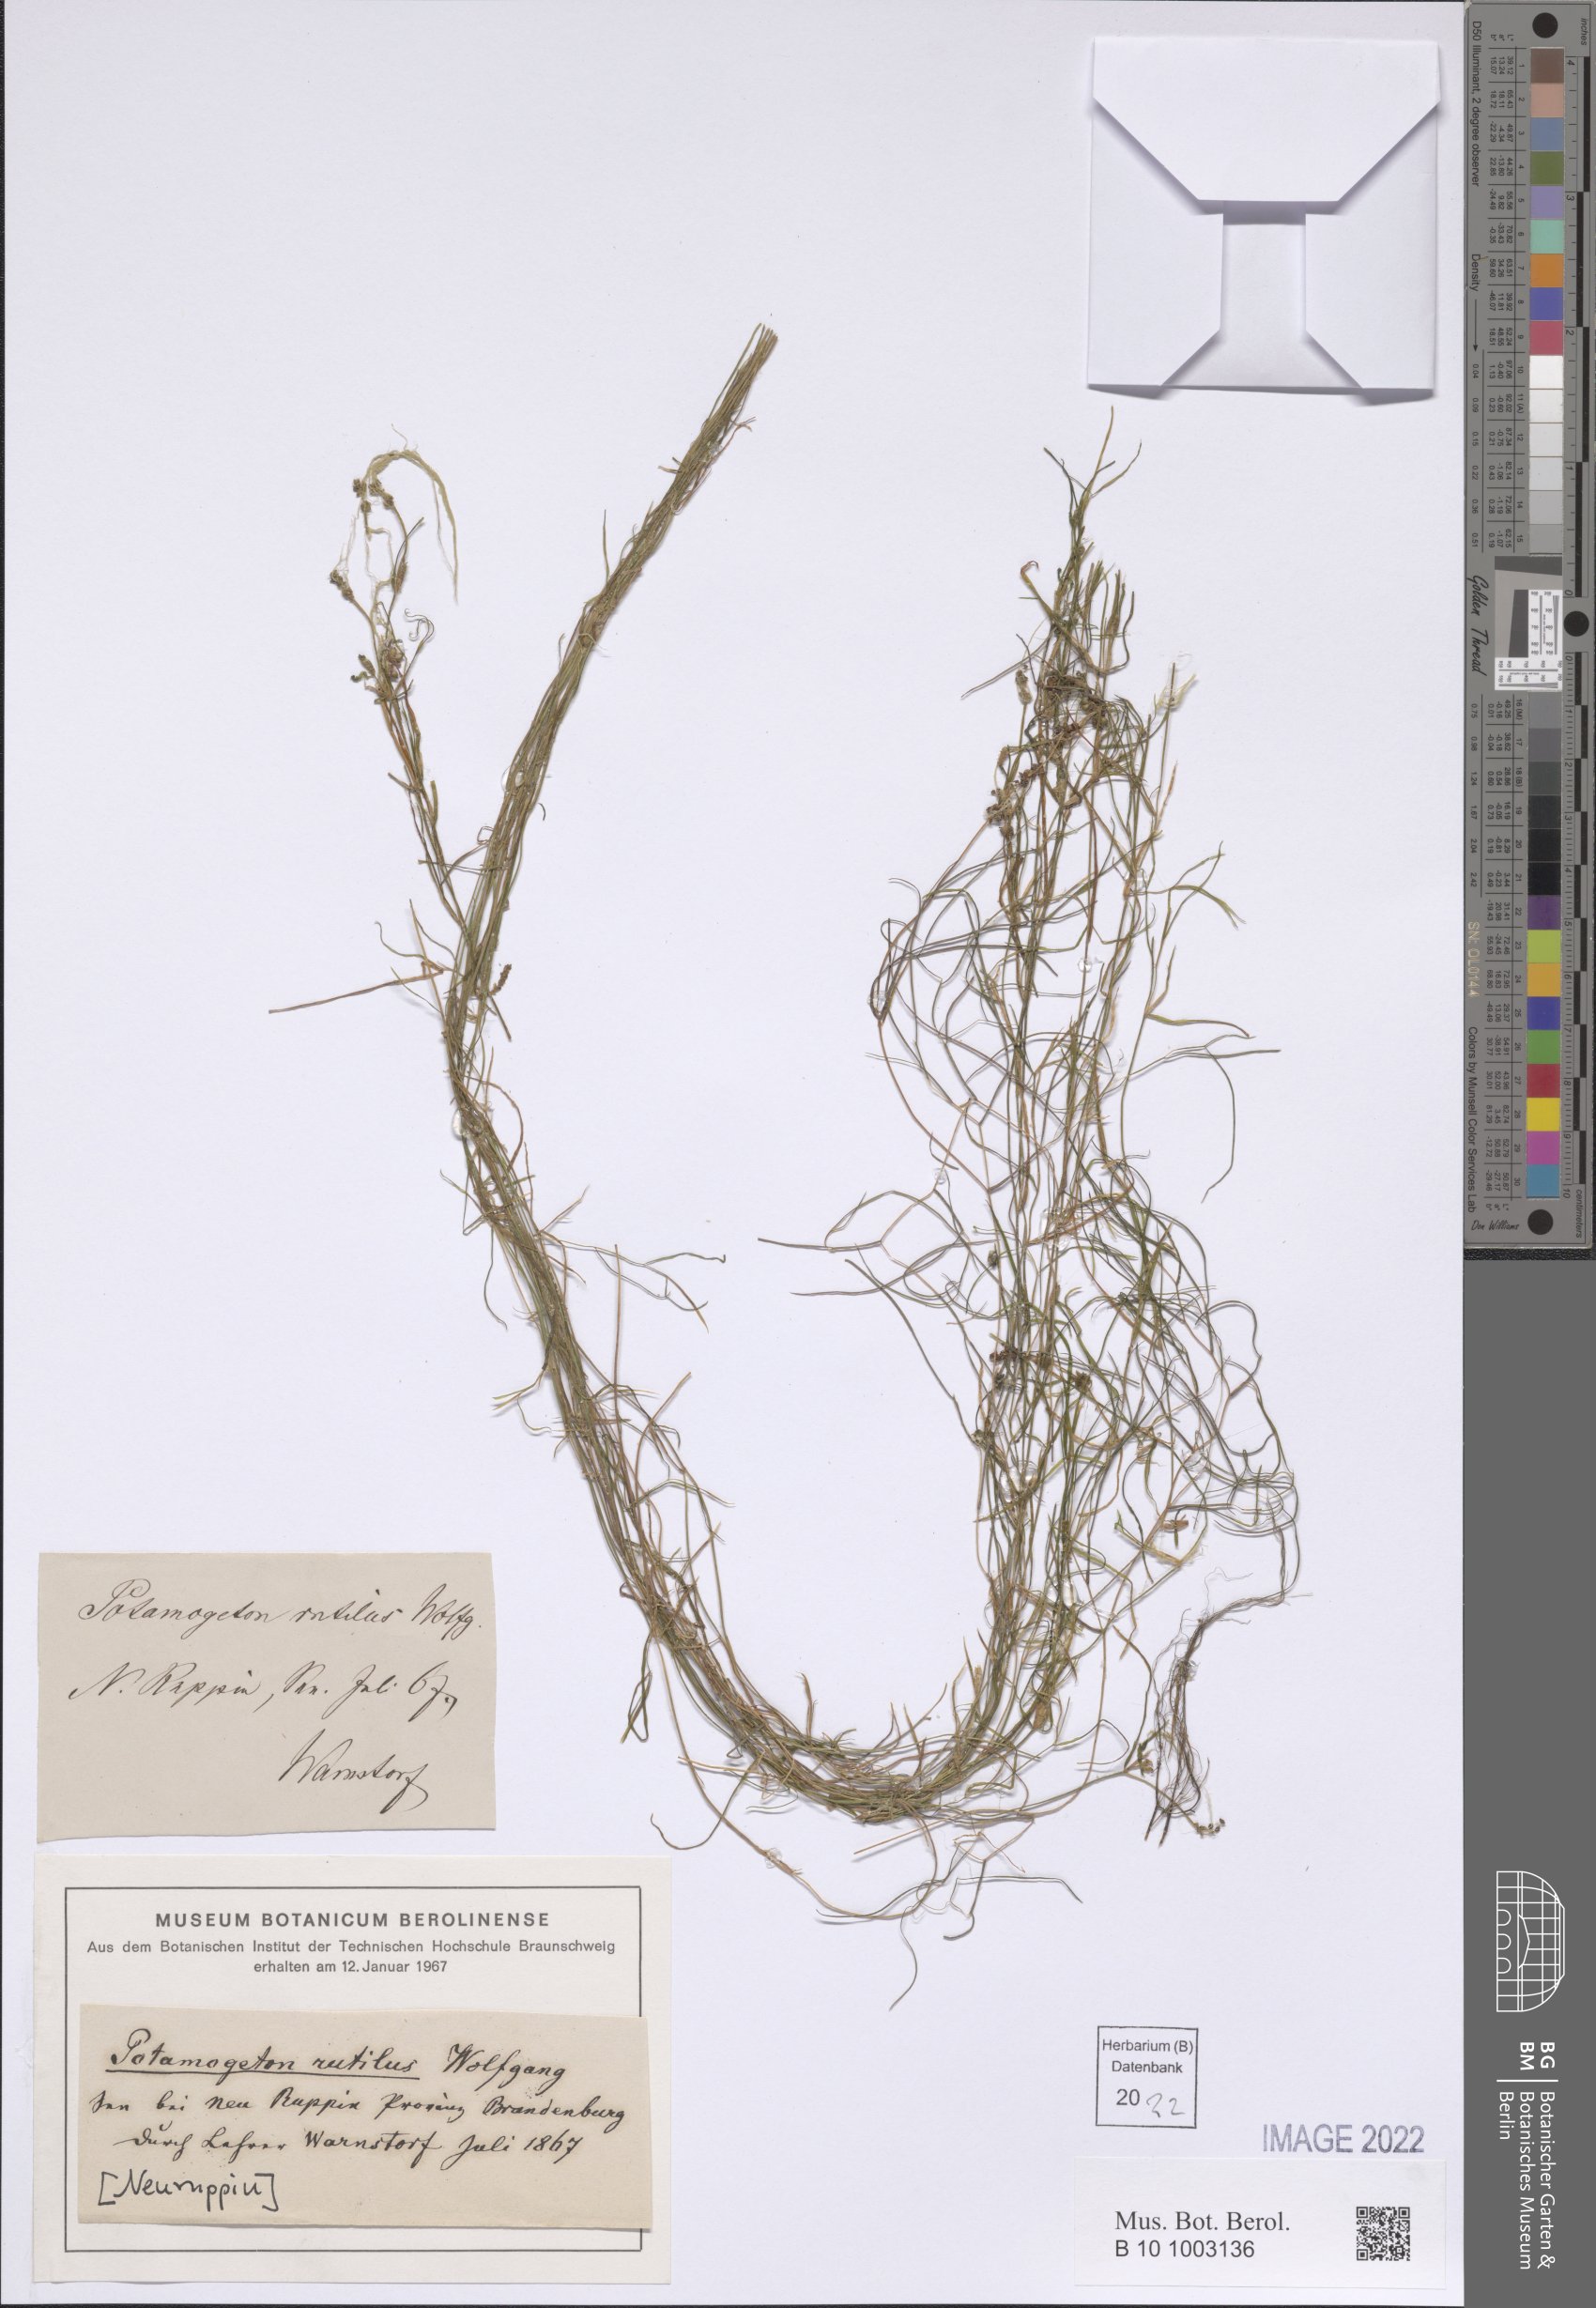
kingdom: Plantae
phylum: Tracheophyta
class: Liliopsida
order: Alismatales
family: Potamogetonaceae
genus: Potamogeton
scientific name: Potamogeton rutilus
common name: Shetland pondweed
